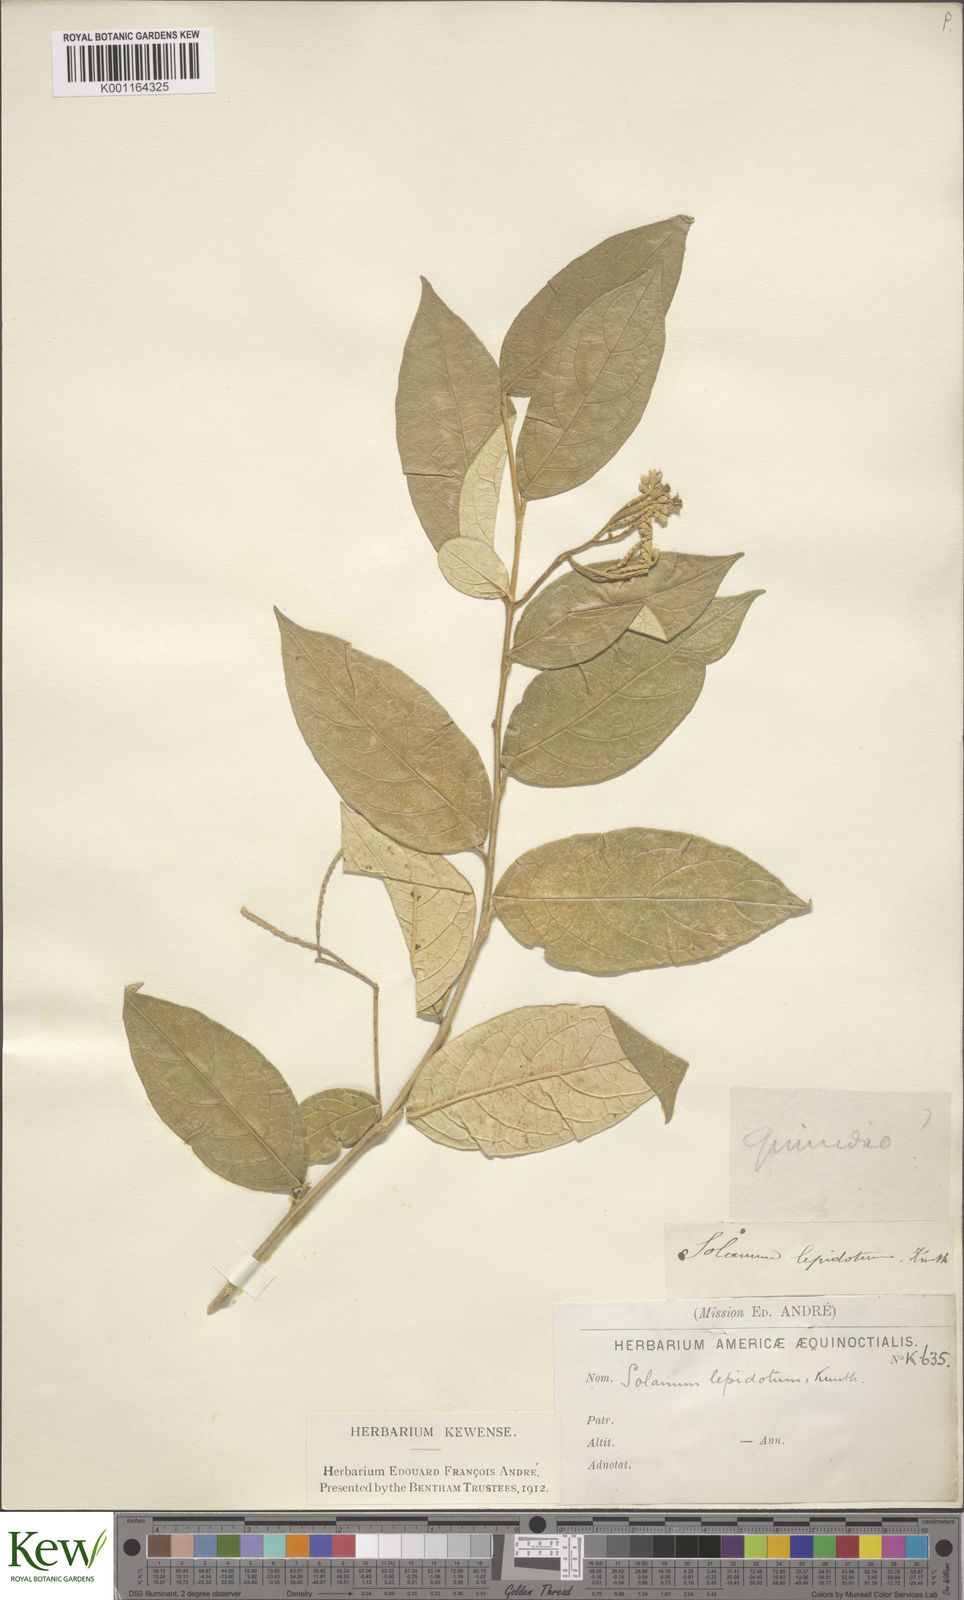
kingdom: Plantae
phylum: Tracheophyta
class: Magnoliopsida
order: Solanales
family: Solanaceae
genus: Solanum
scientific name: Solanum lepidotum
